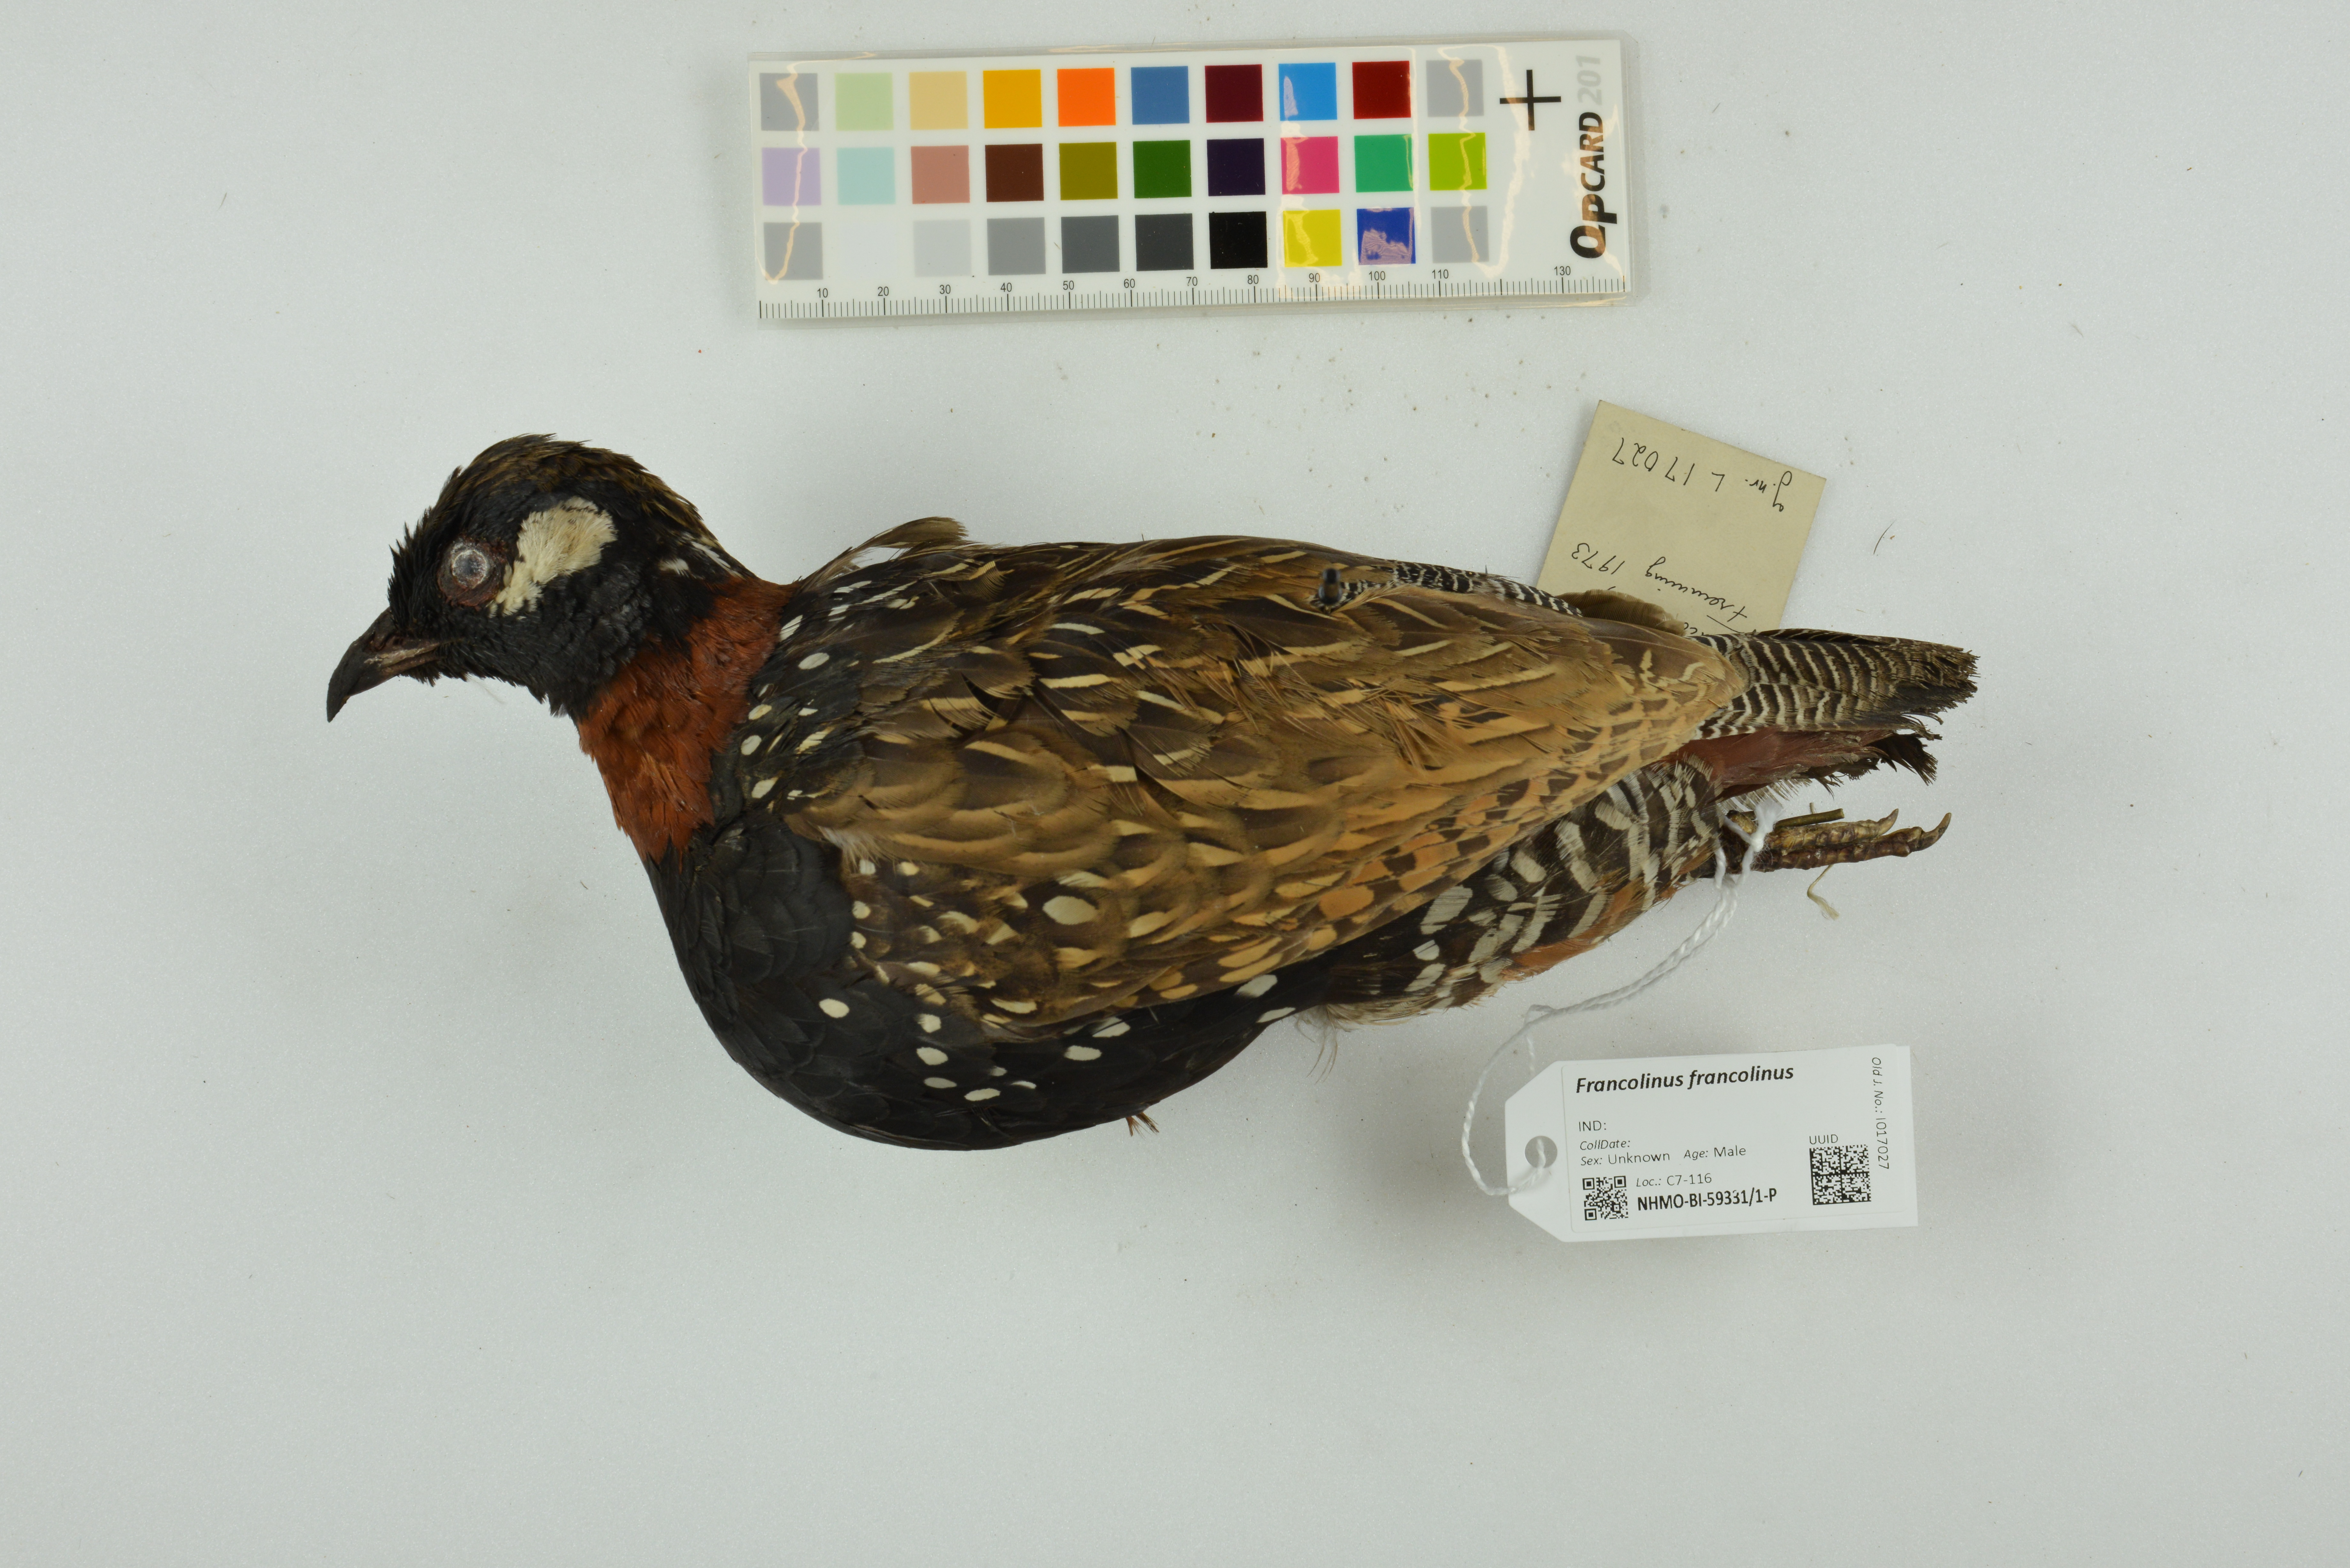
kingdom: Animalia
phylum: Chordata
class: Aves
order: Galliformes
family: Phasianidae
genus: Francolinus
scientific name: Francolinus francolinus
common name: Black francolin
